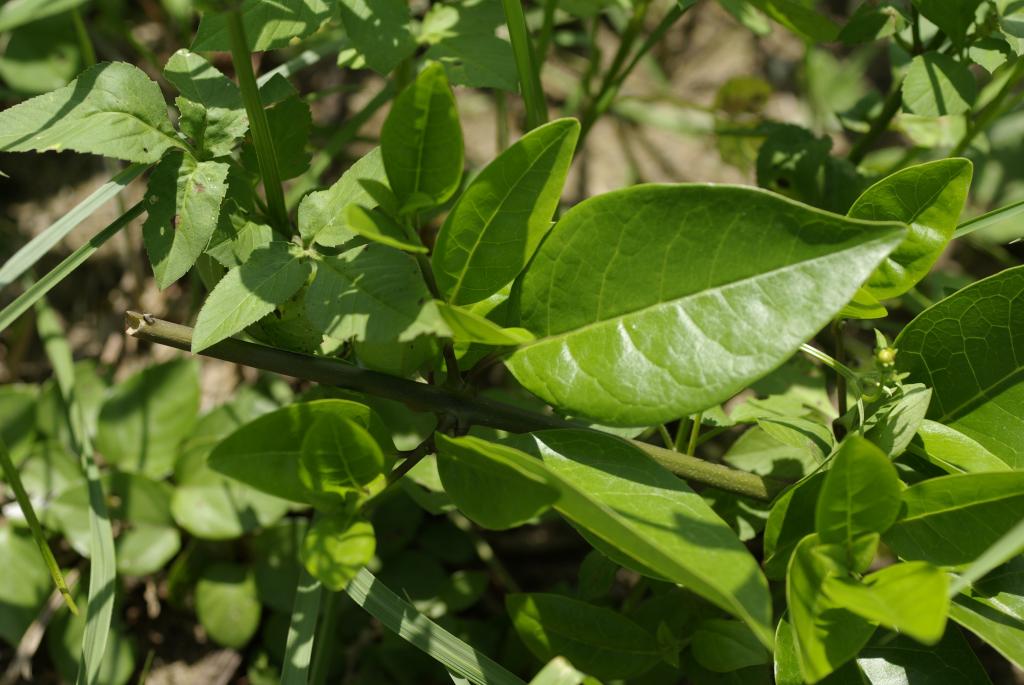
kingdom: Plantae
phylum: Tracheophyta
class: Magnoliopsida
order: Lamiales
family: Scrophulariaceae
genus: Myoporum
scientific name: Myoporum bontioides
